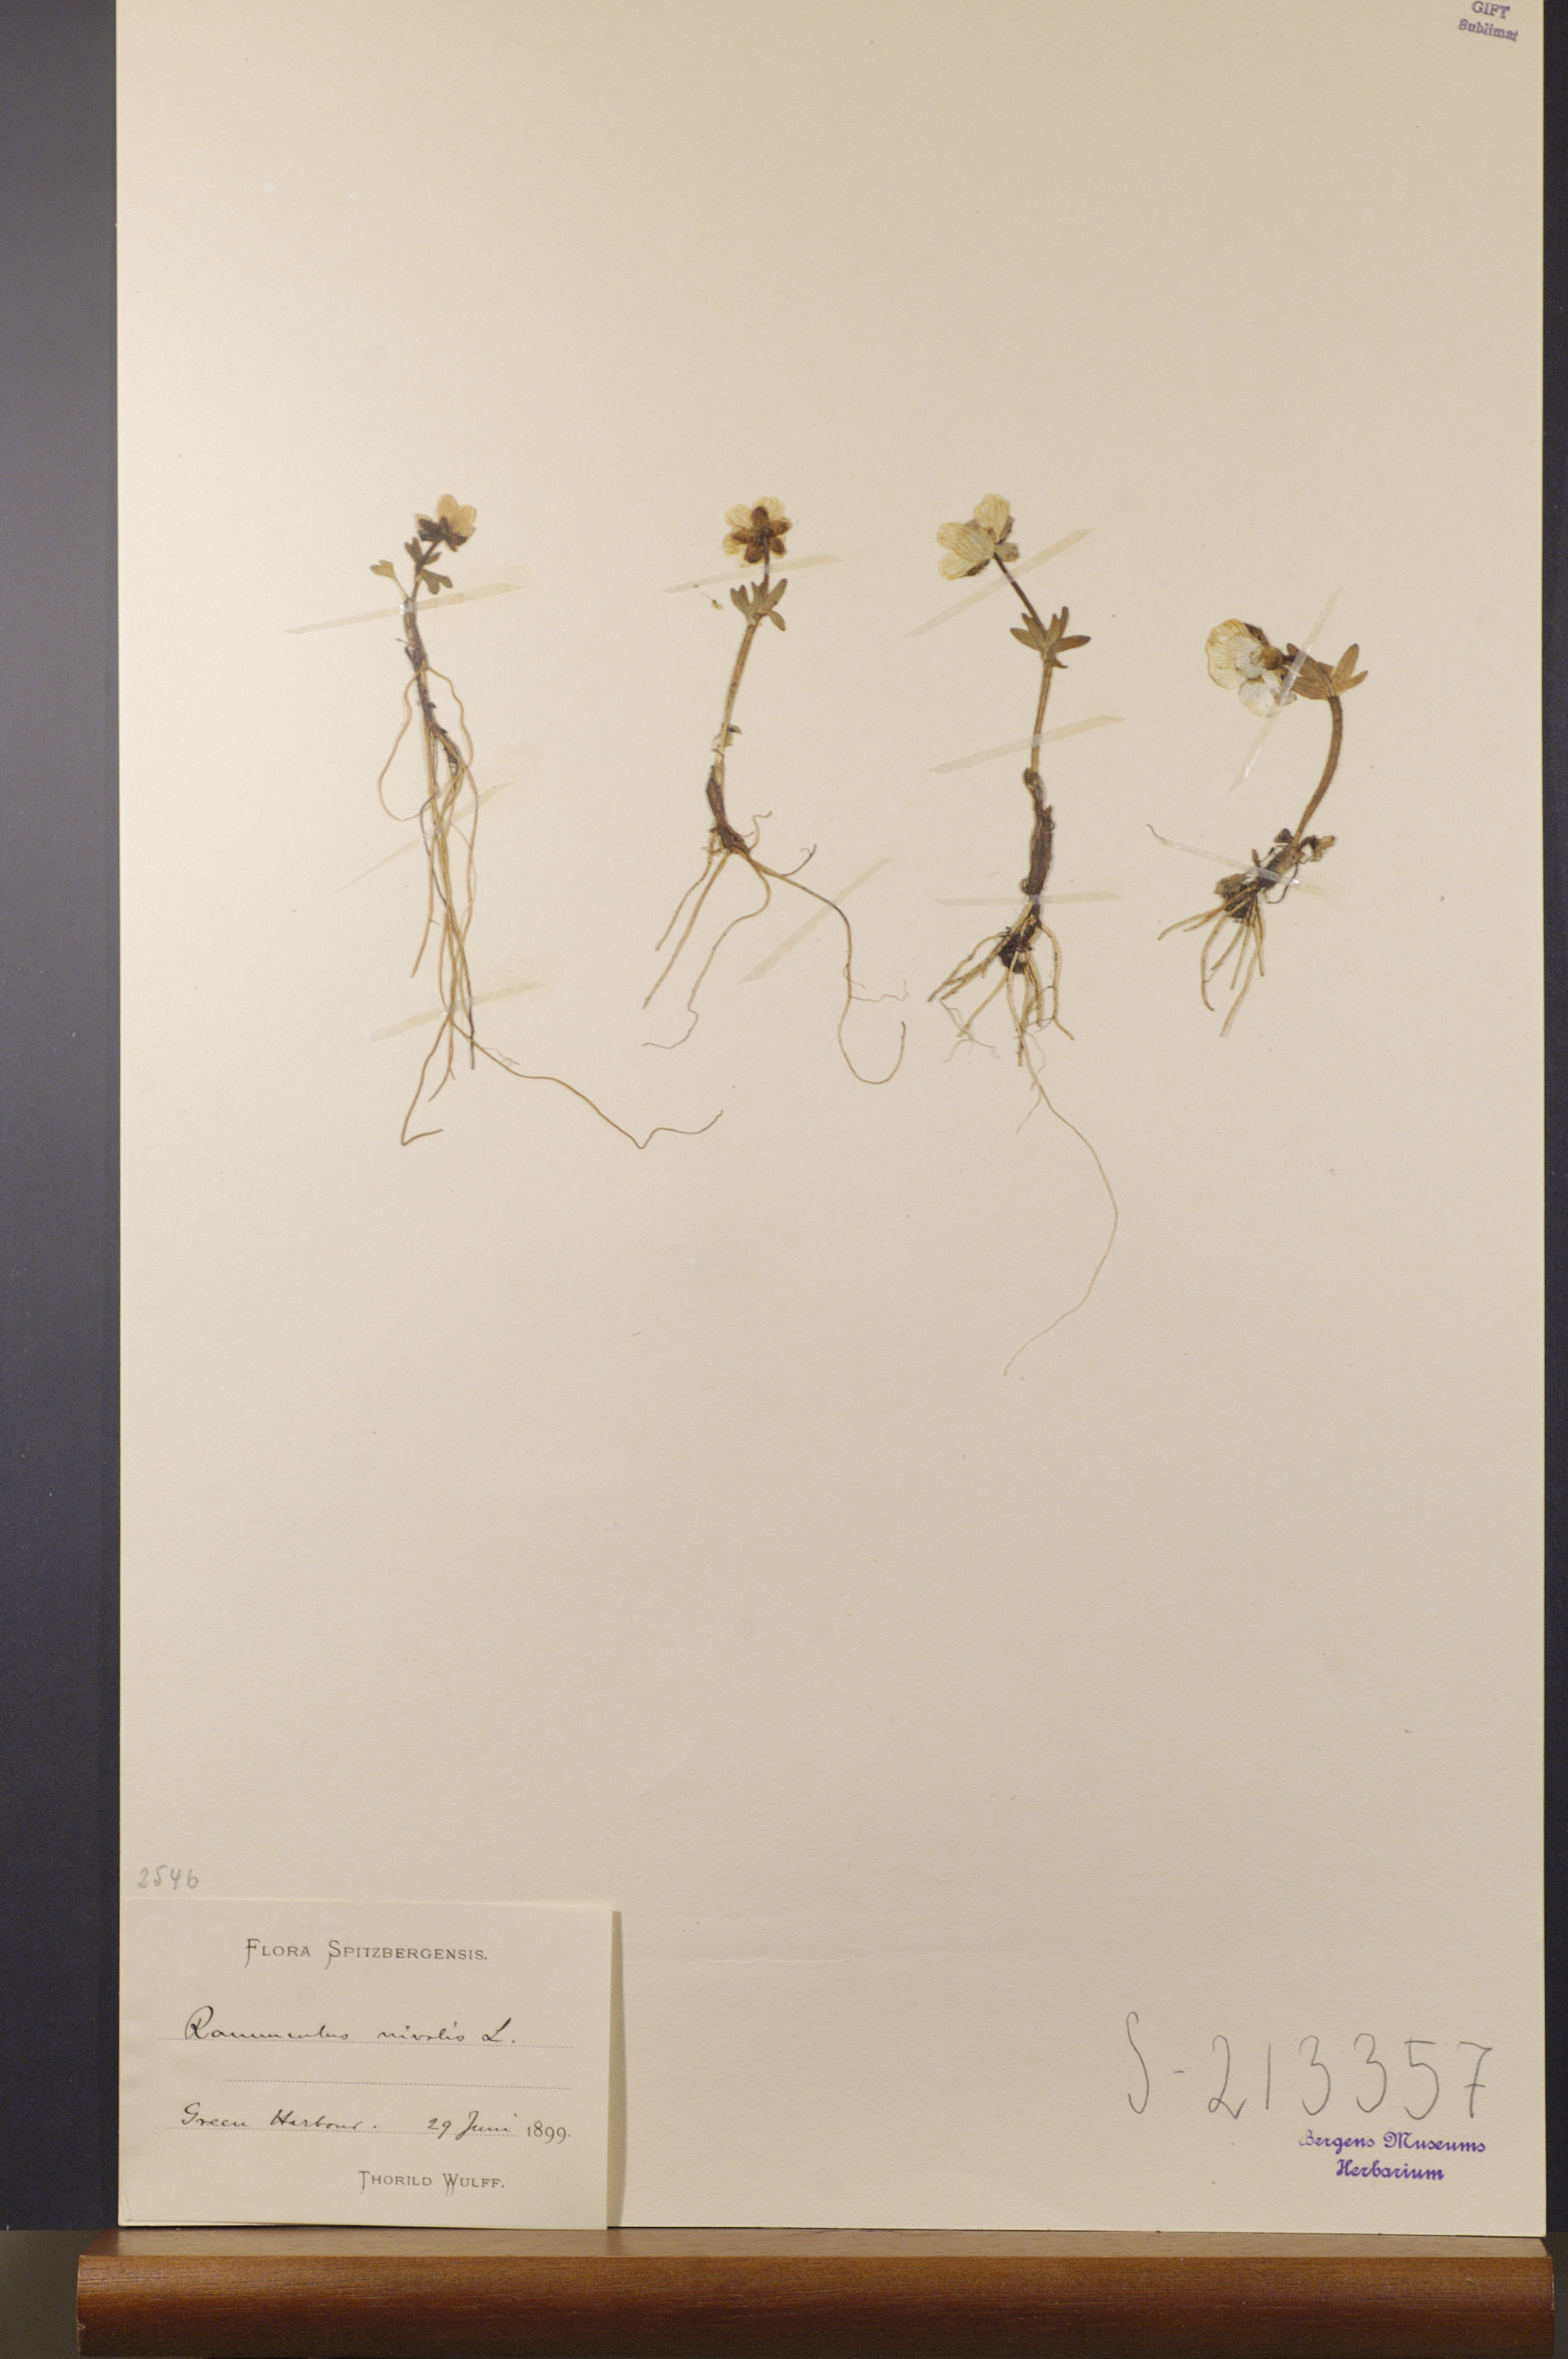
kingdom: Plantae
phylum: Tracheophyta
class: Magnoliopsida
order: Ranunculales
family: Ranunculaceae
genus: Ranunculus
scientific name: Ranunculus nivalis
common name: Snow buttercup
